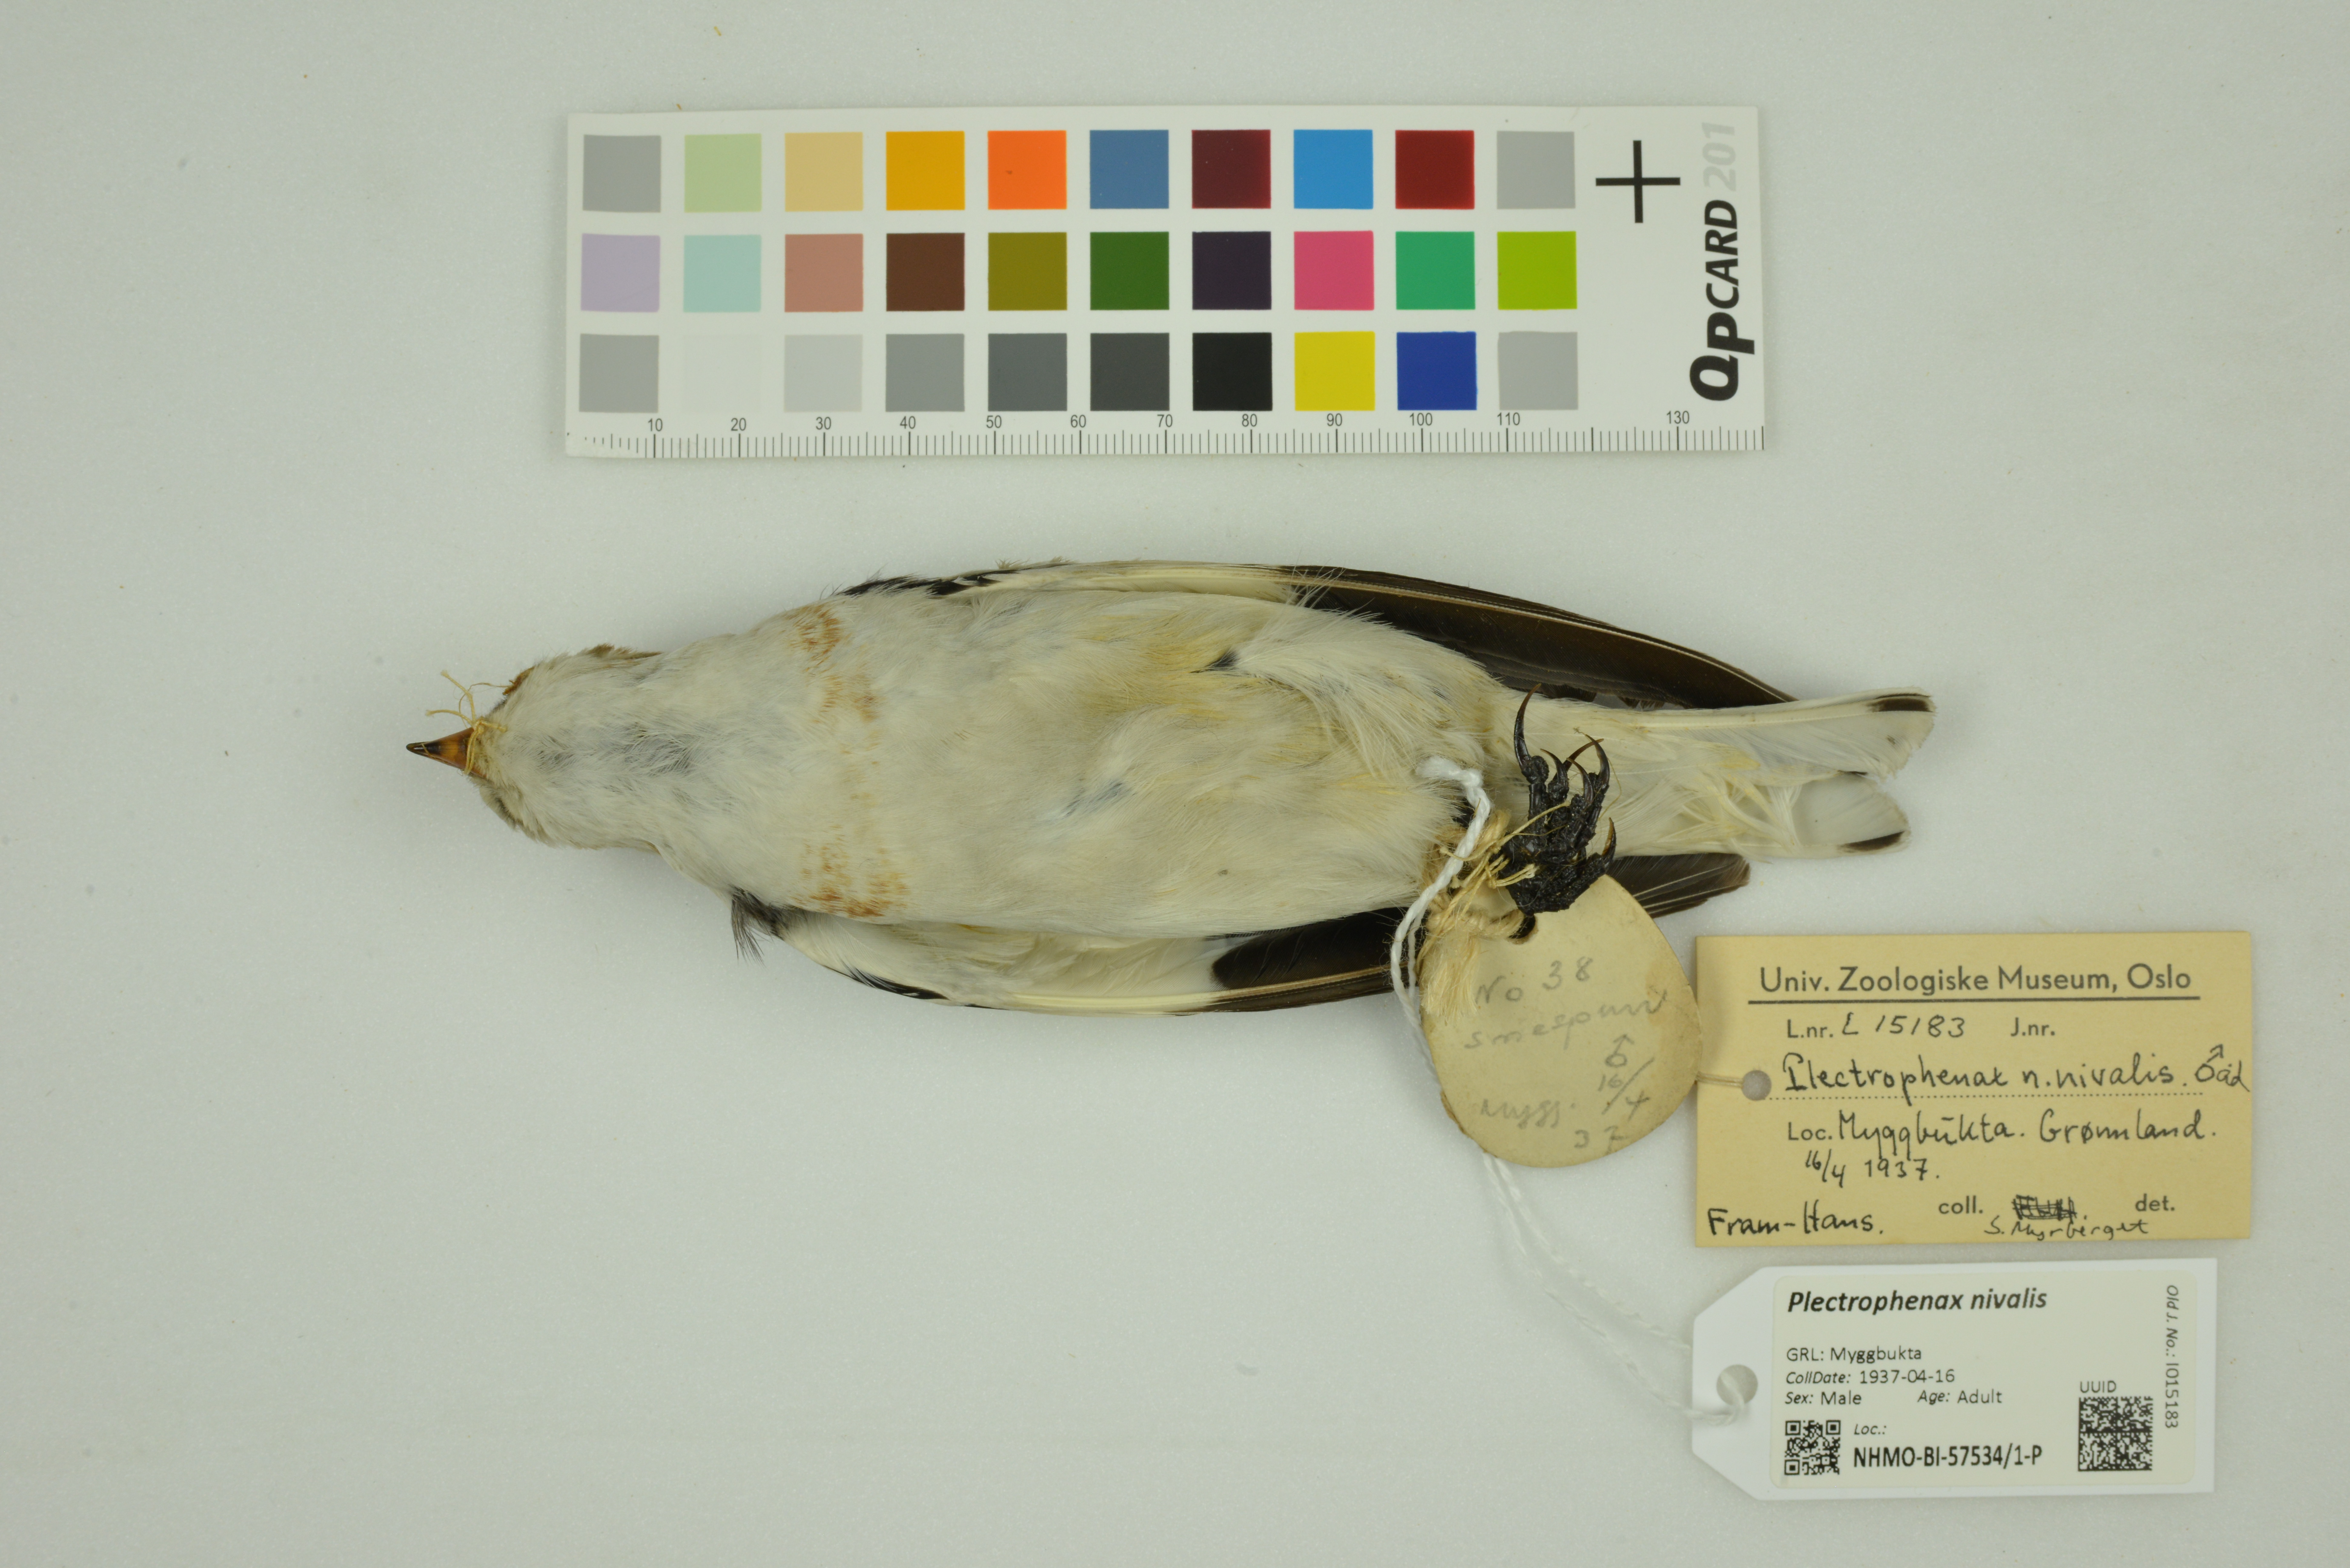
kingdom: Animalia
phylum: Chordata
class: Aves
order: Passeriformes
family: Calcariidae
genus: Plectrophenax
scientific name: Plectrophenax nivalis
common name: Snow bunting
